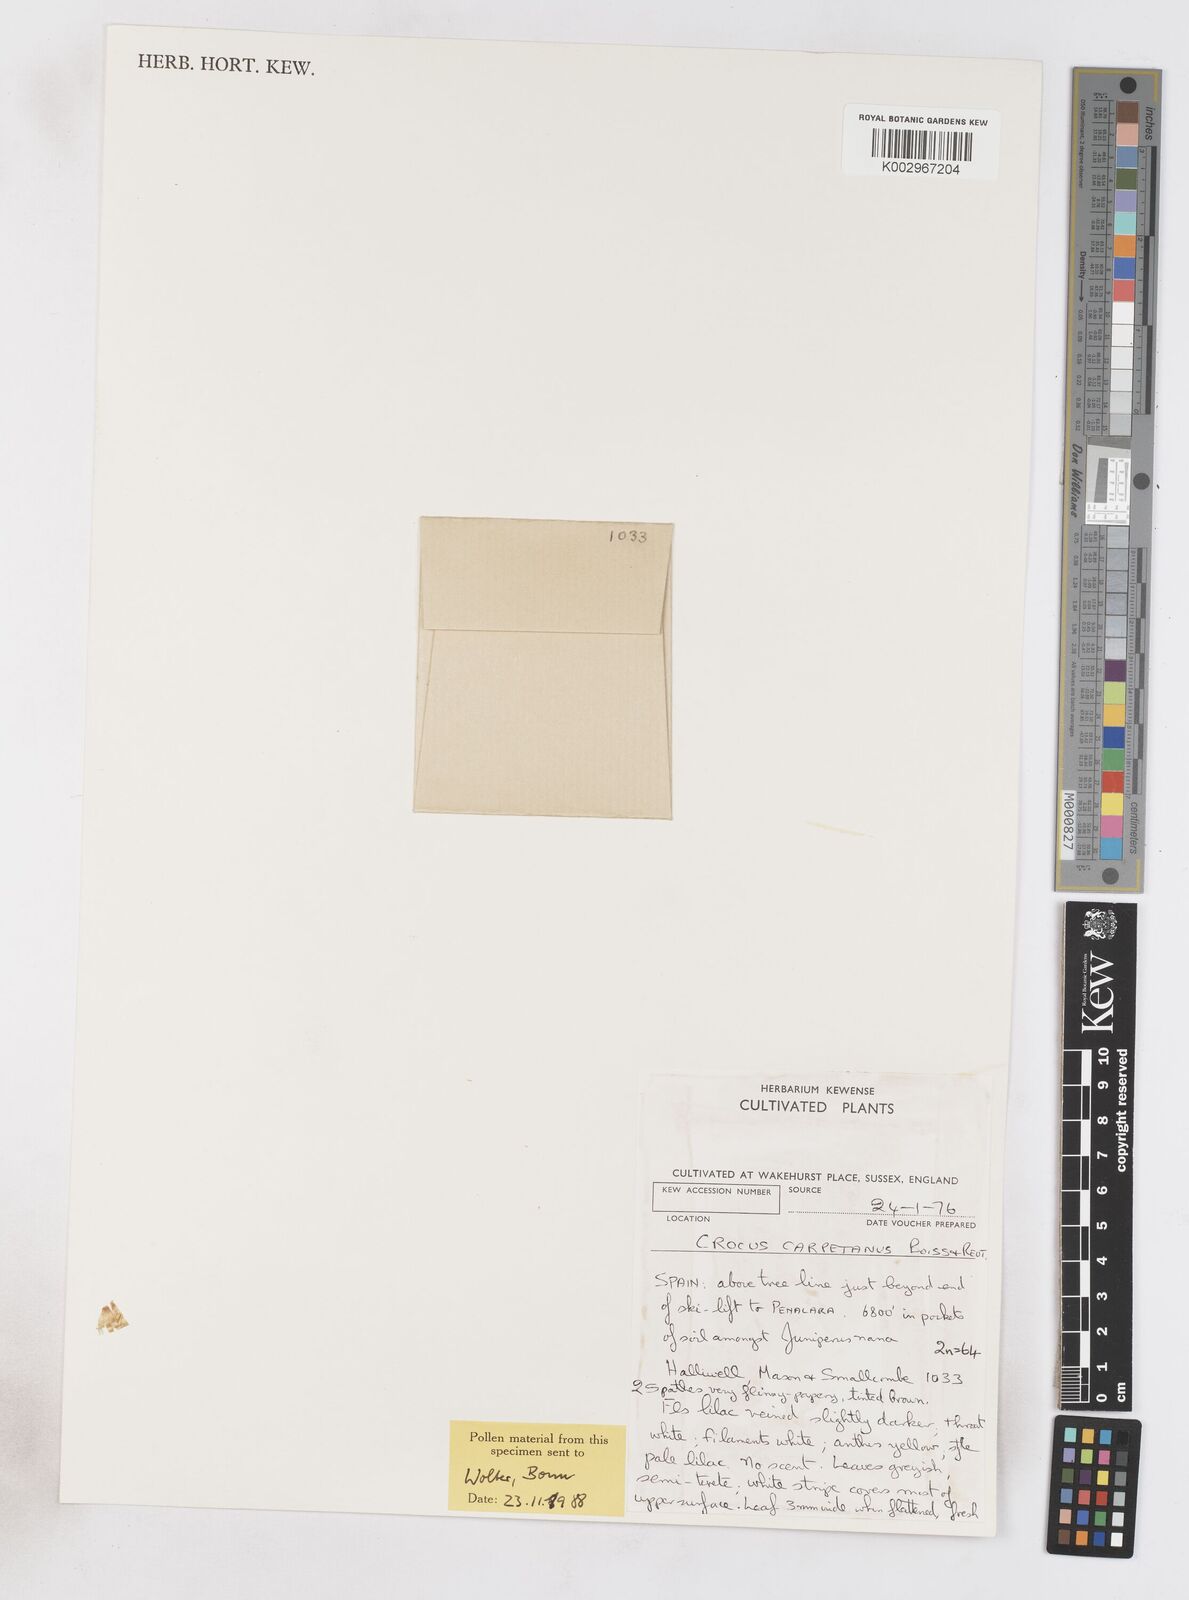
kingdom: Plantae
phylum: Tracheophyta
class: Liliopsida
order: Asparagales
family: Iridaceae
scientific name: Iridaceae
